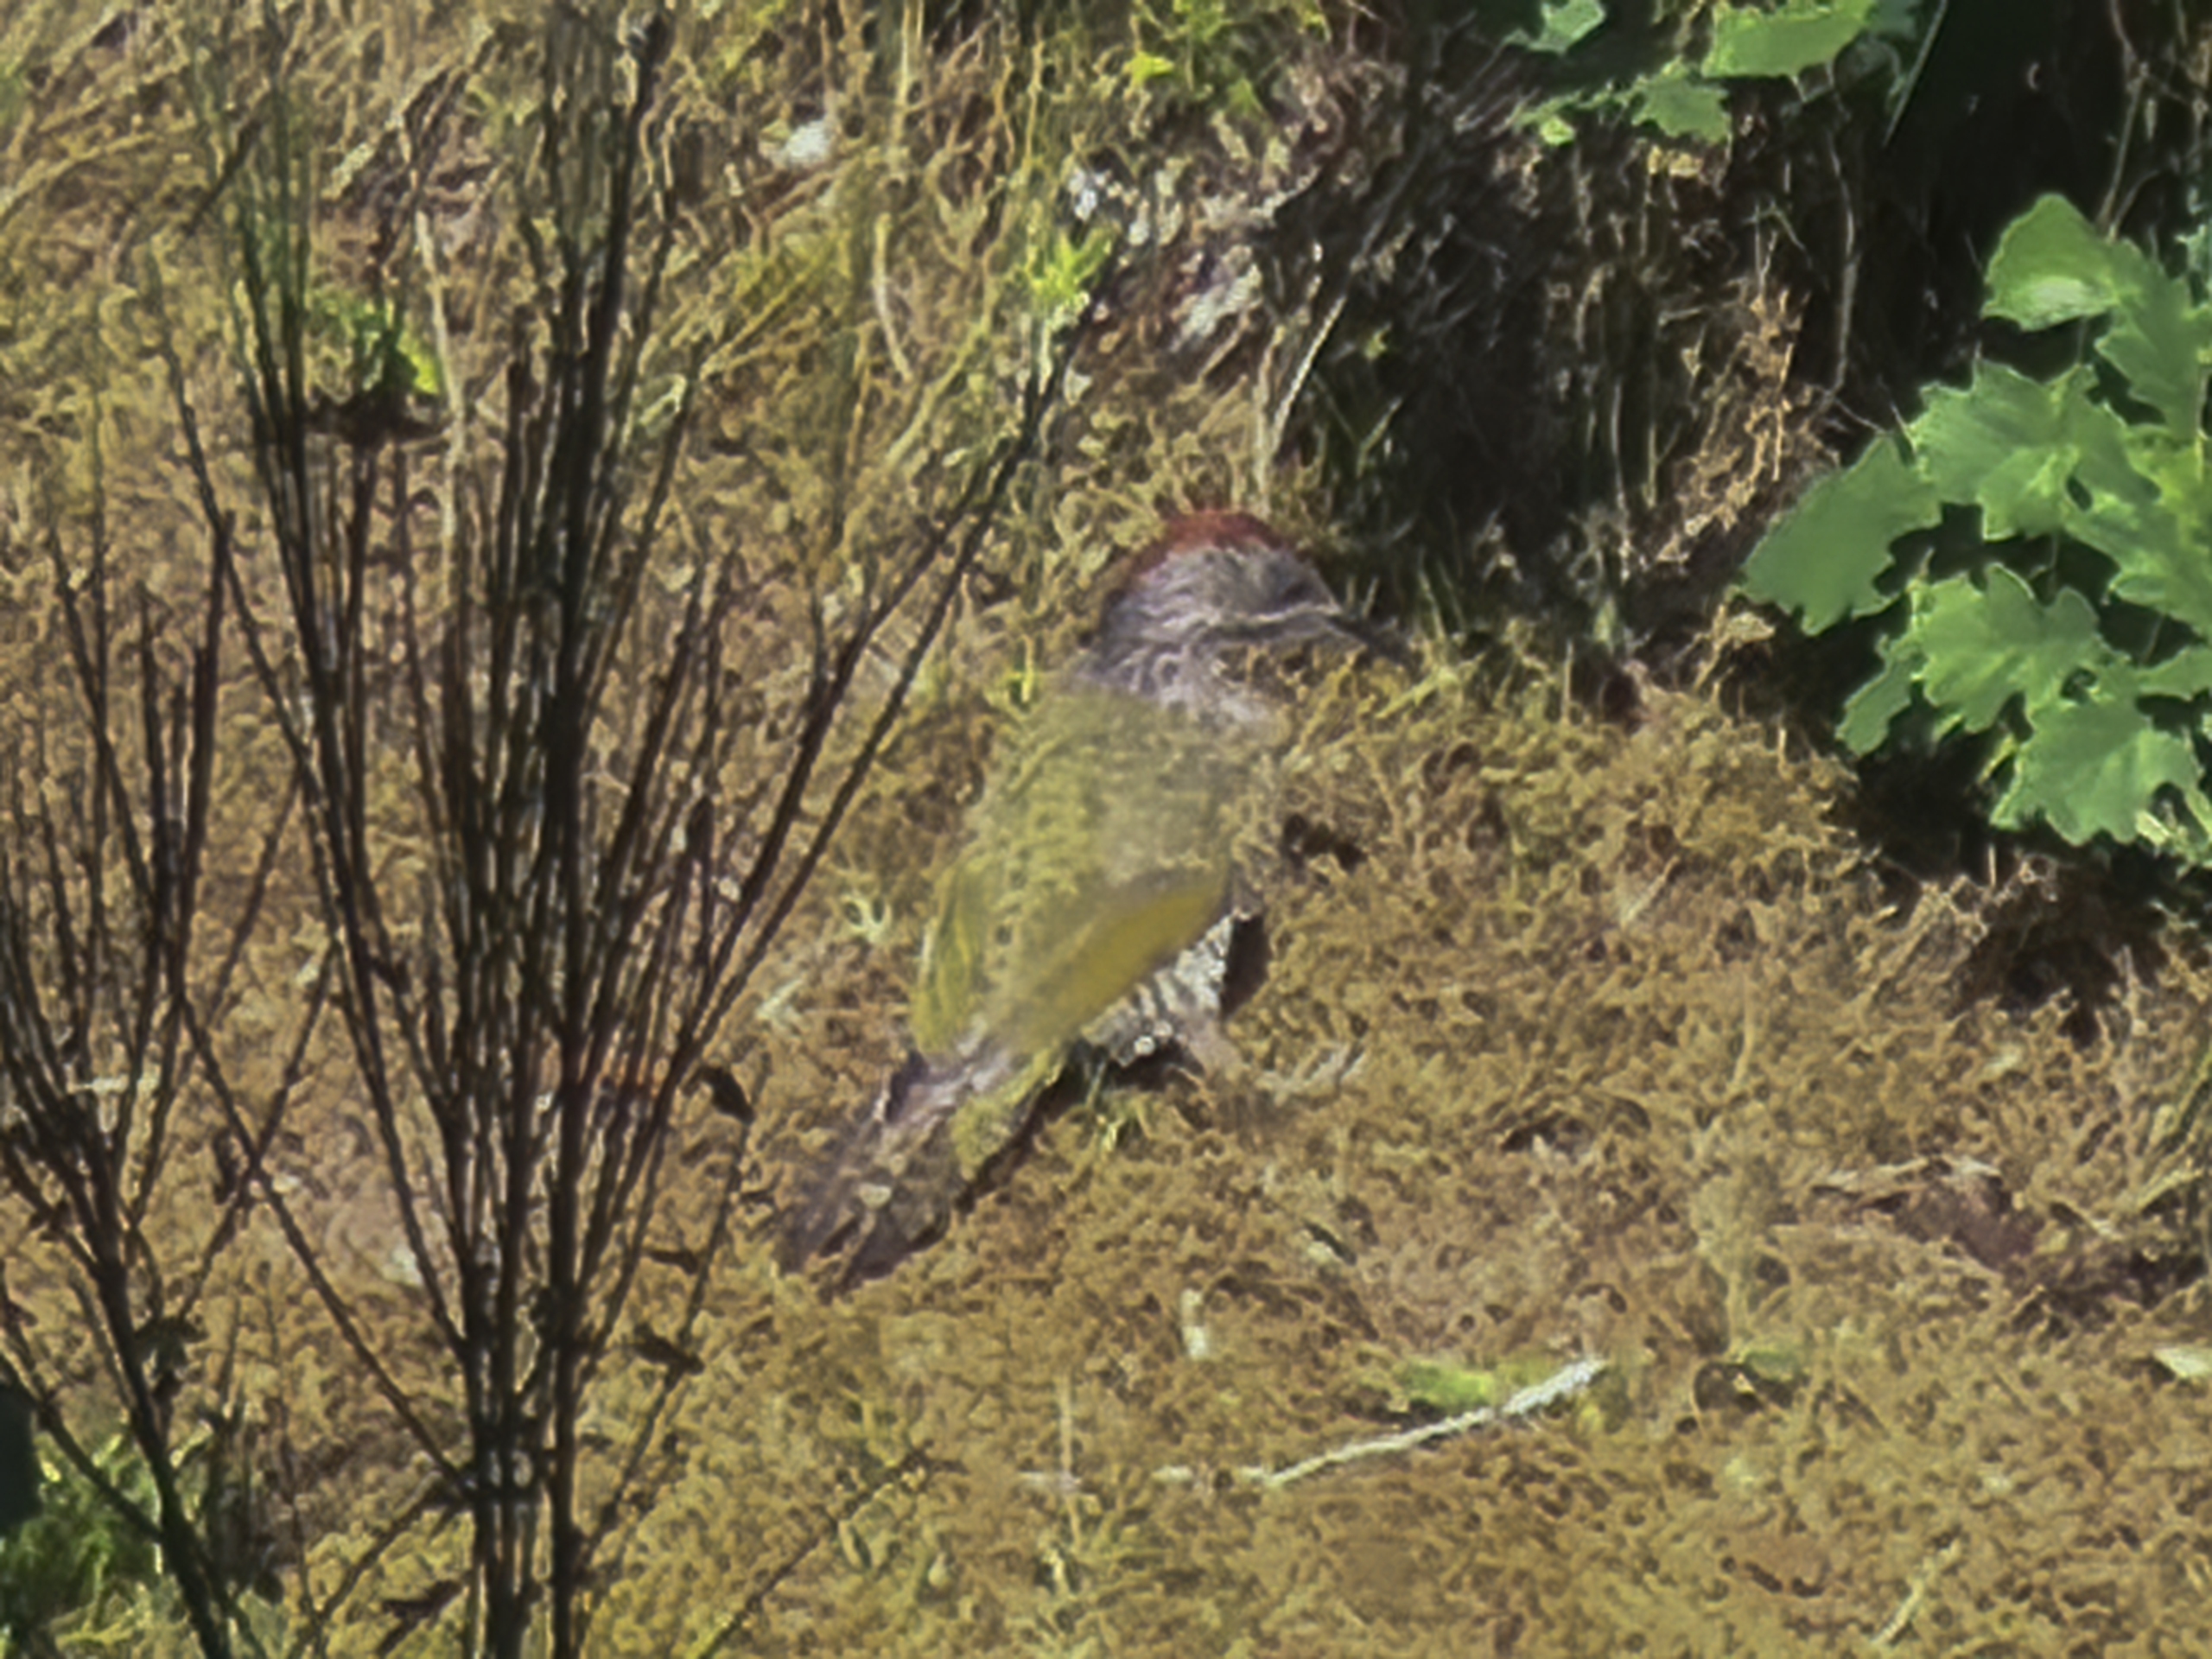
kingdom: Animalia
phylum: Chordata
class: Aves
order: Piciformes
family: Picidae
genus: Picus
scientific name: Picus viridis
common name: Grønspætte
